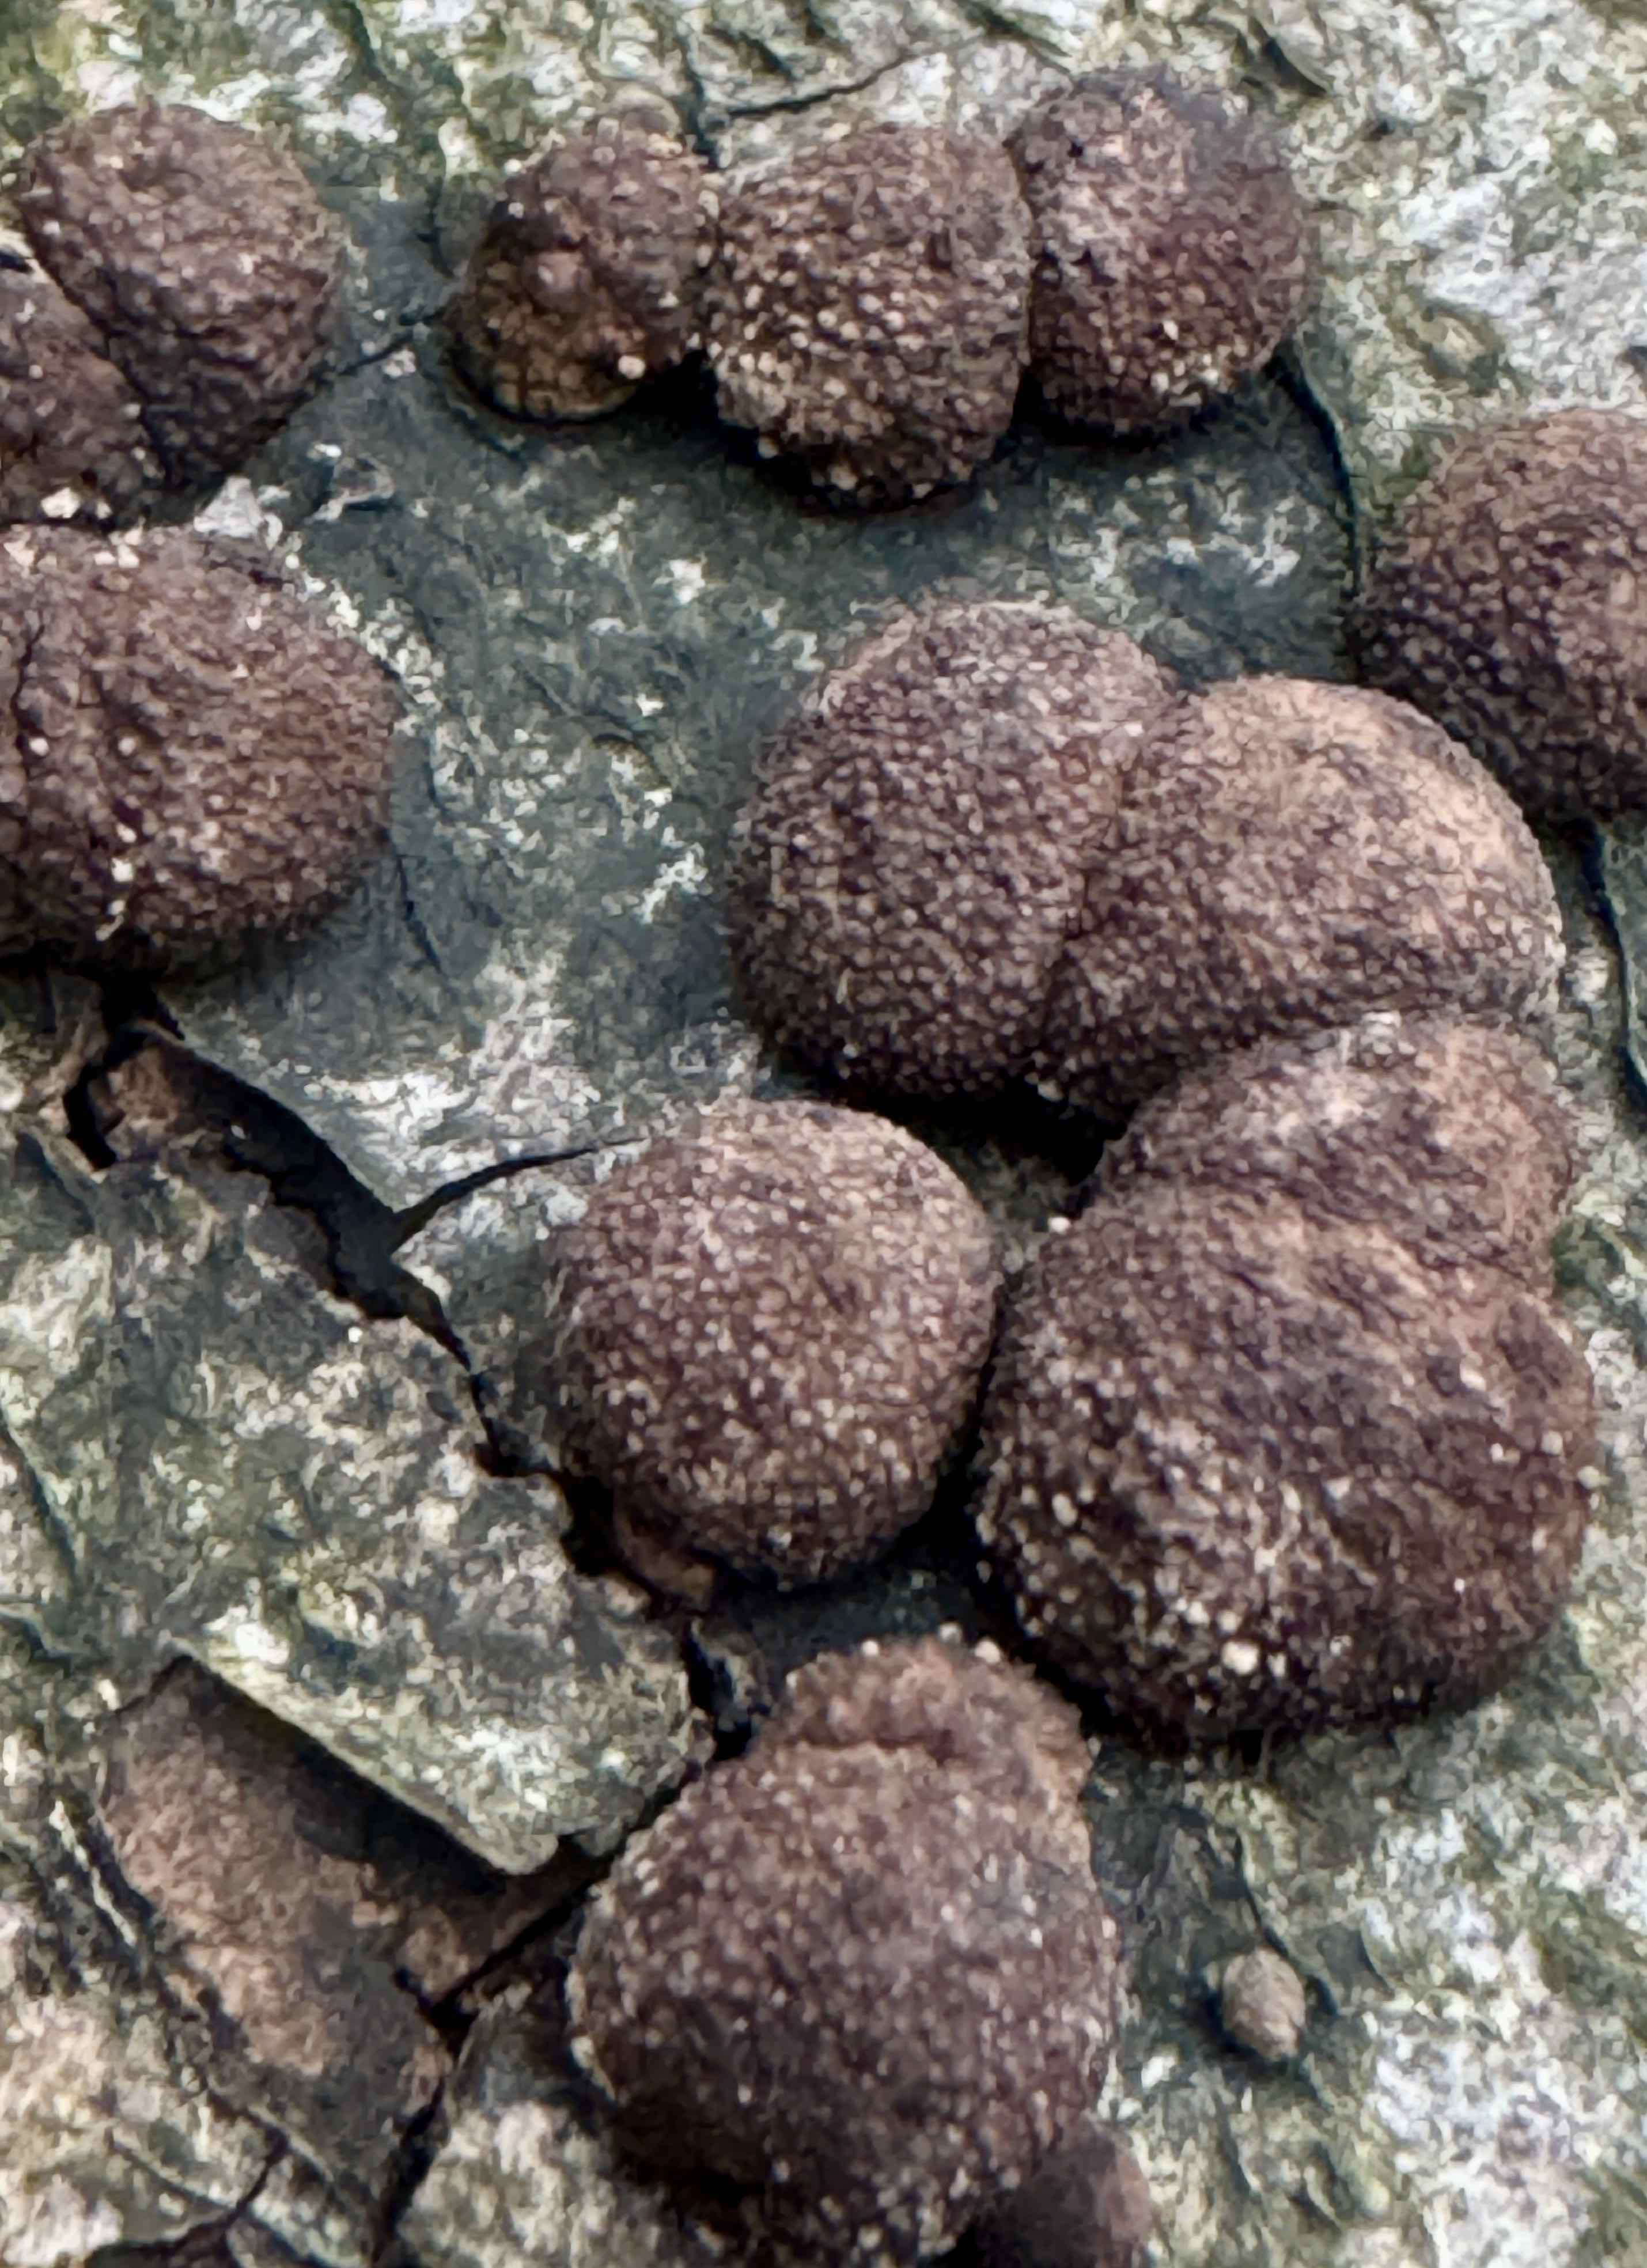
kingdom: Fungi
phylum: Ascomycota
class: Sordariomycetes
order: Xylariales
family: Hypoxylaceae
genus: Hypoxylon
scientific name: Hypoxylon fragiforme
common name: kuljordbær
